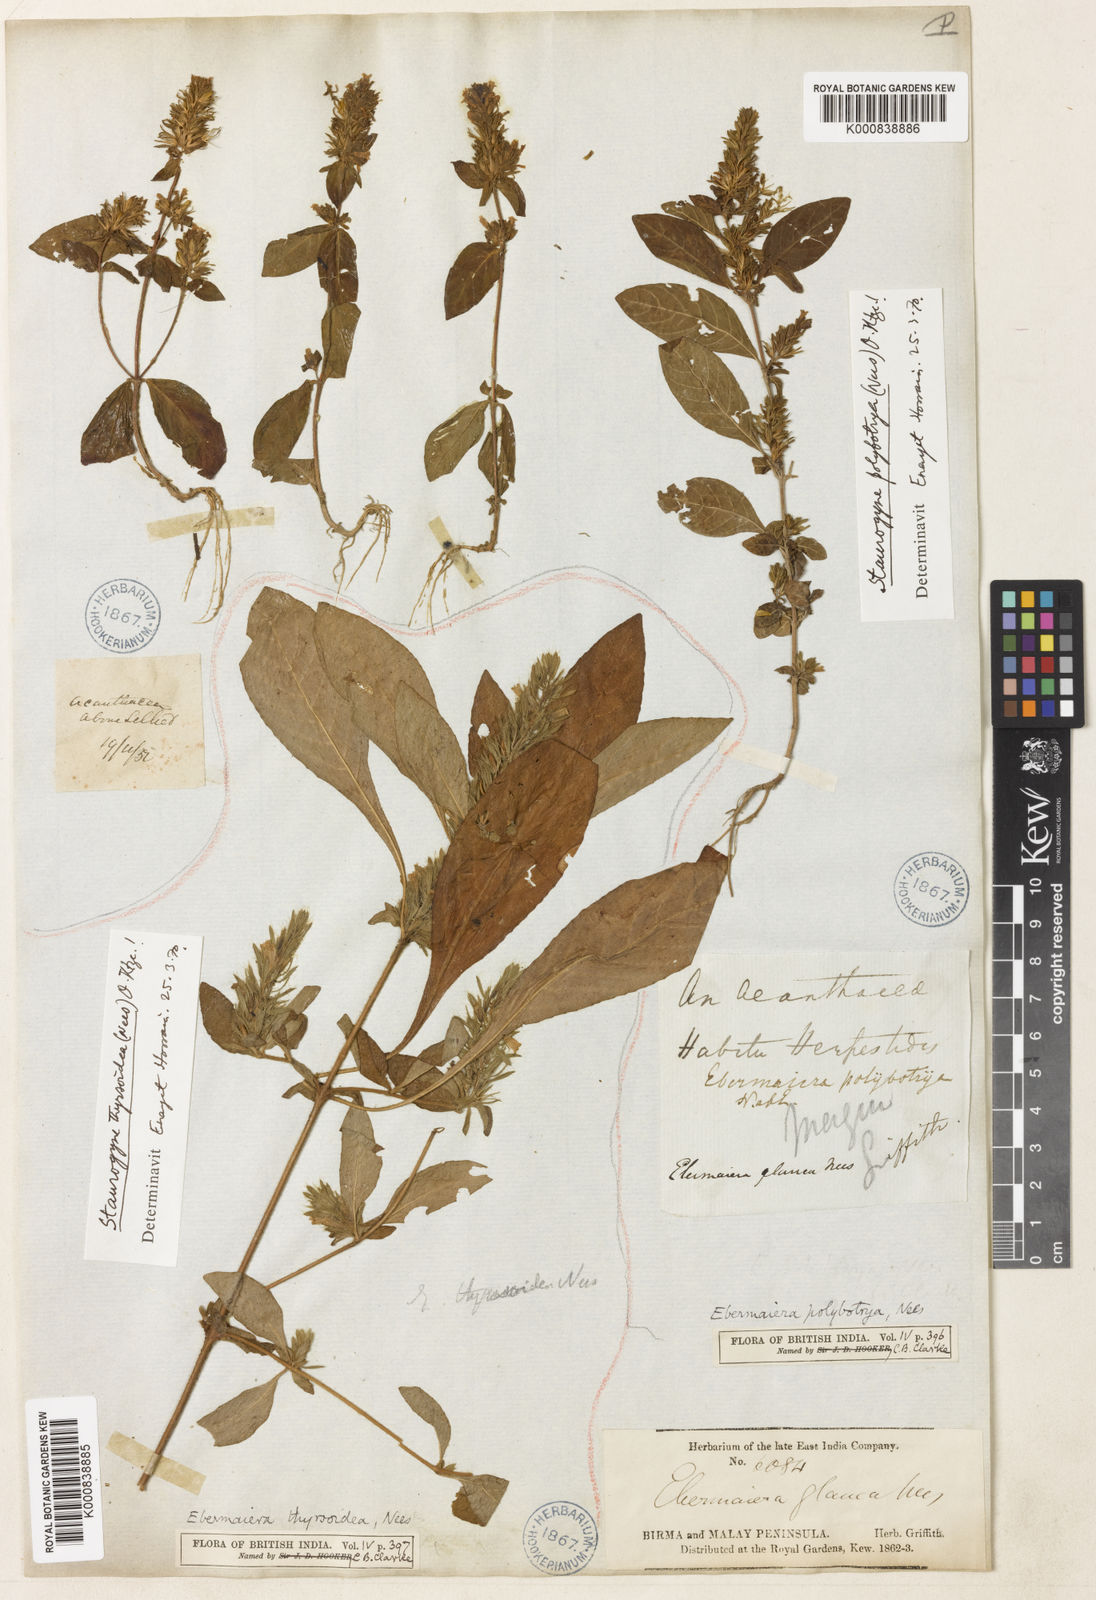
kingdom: Plantae
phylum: Tracheophyta
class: Magnoliopsida
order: Lamiales
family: Acanthaceae
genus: Staurogyne
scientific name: Staurogyne polybotrya
